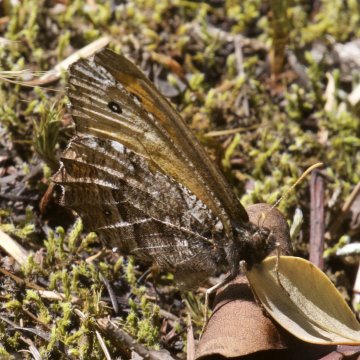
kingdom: Animalia
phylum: Arthropoda
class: Insecta
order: Lepidoptera
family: Nymphalidae
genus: Oeneis
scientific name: Oeneis nevadensis
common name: Great Arctic
